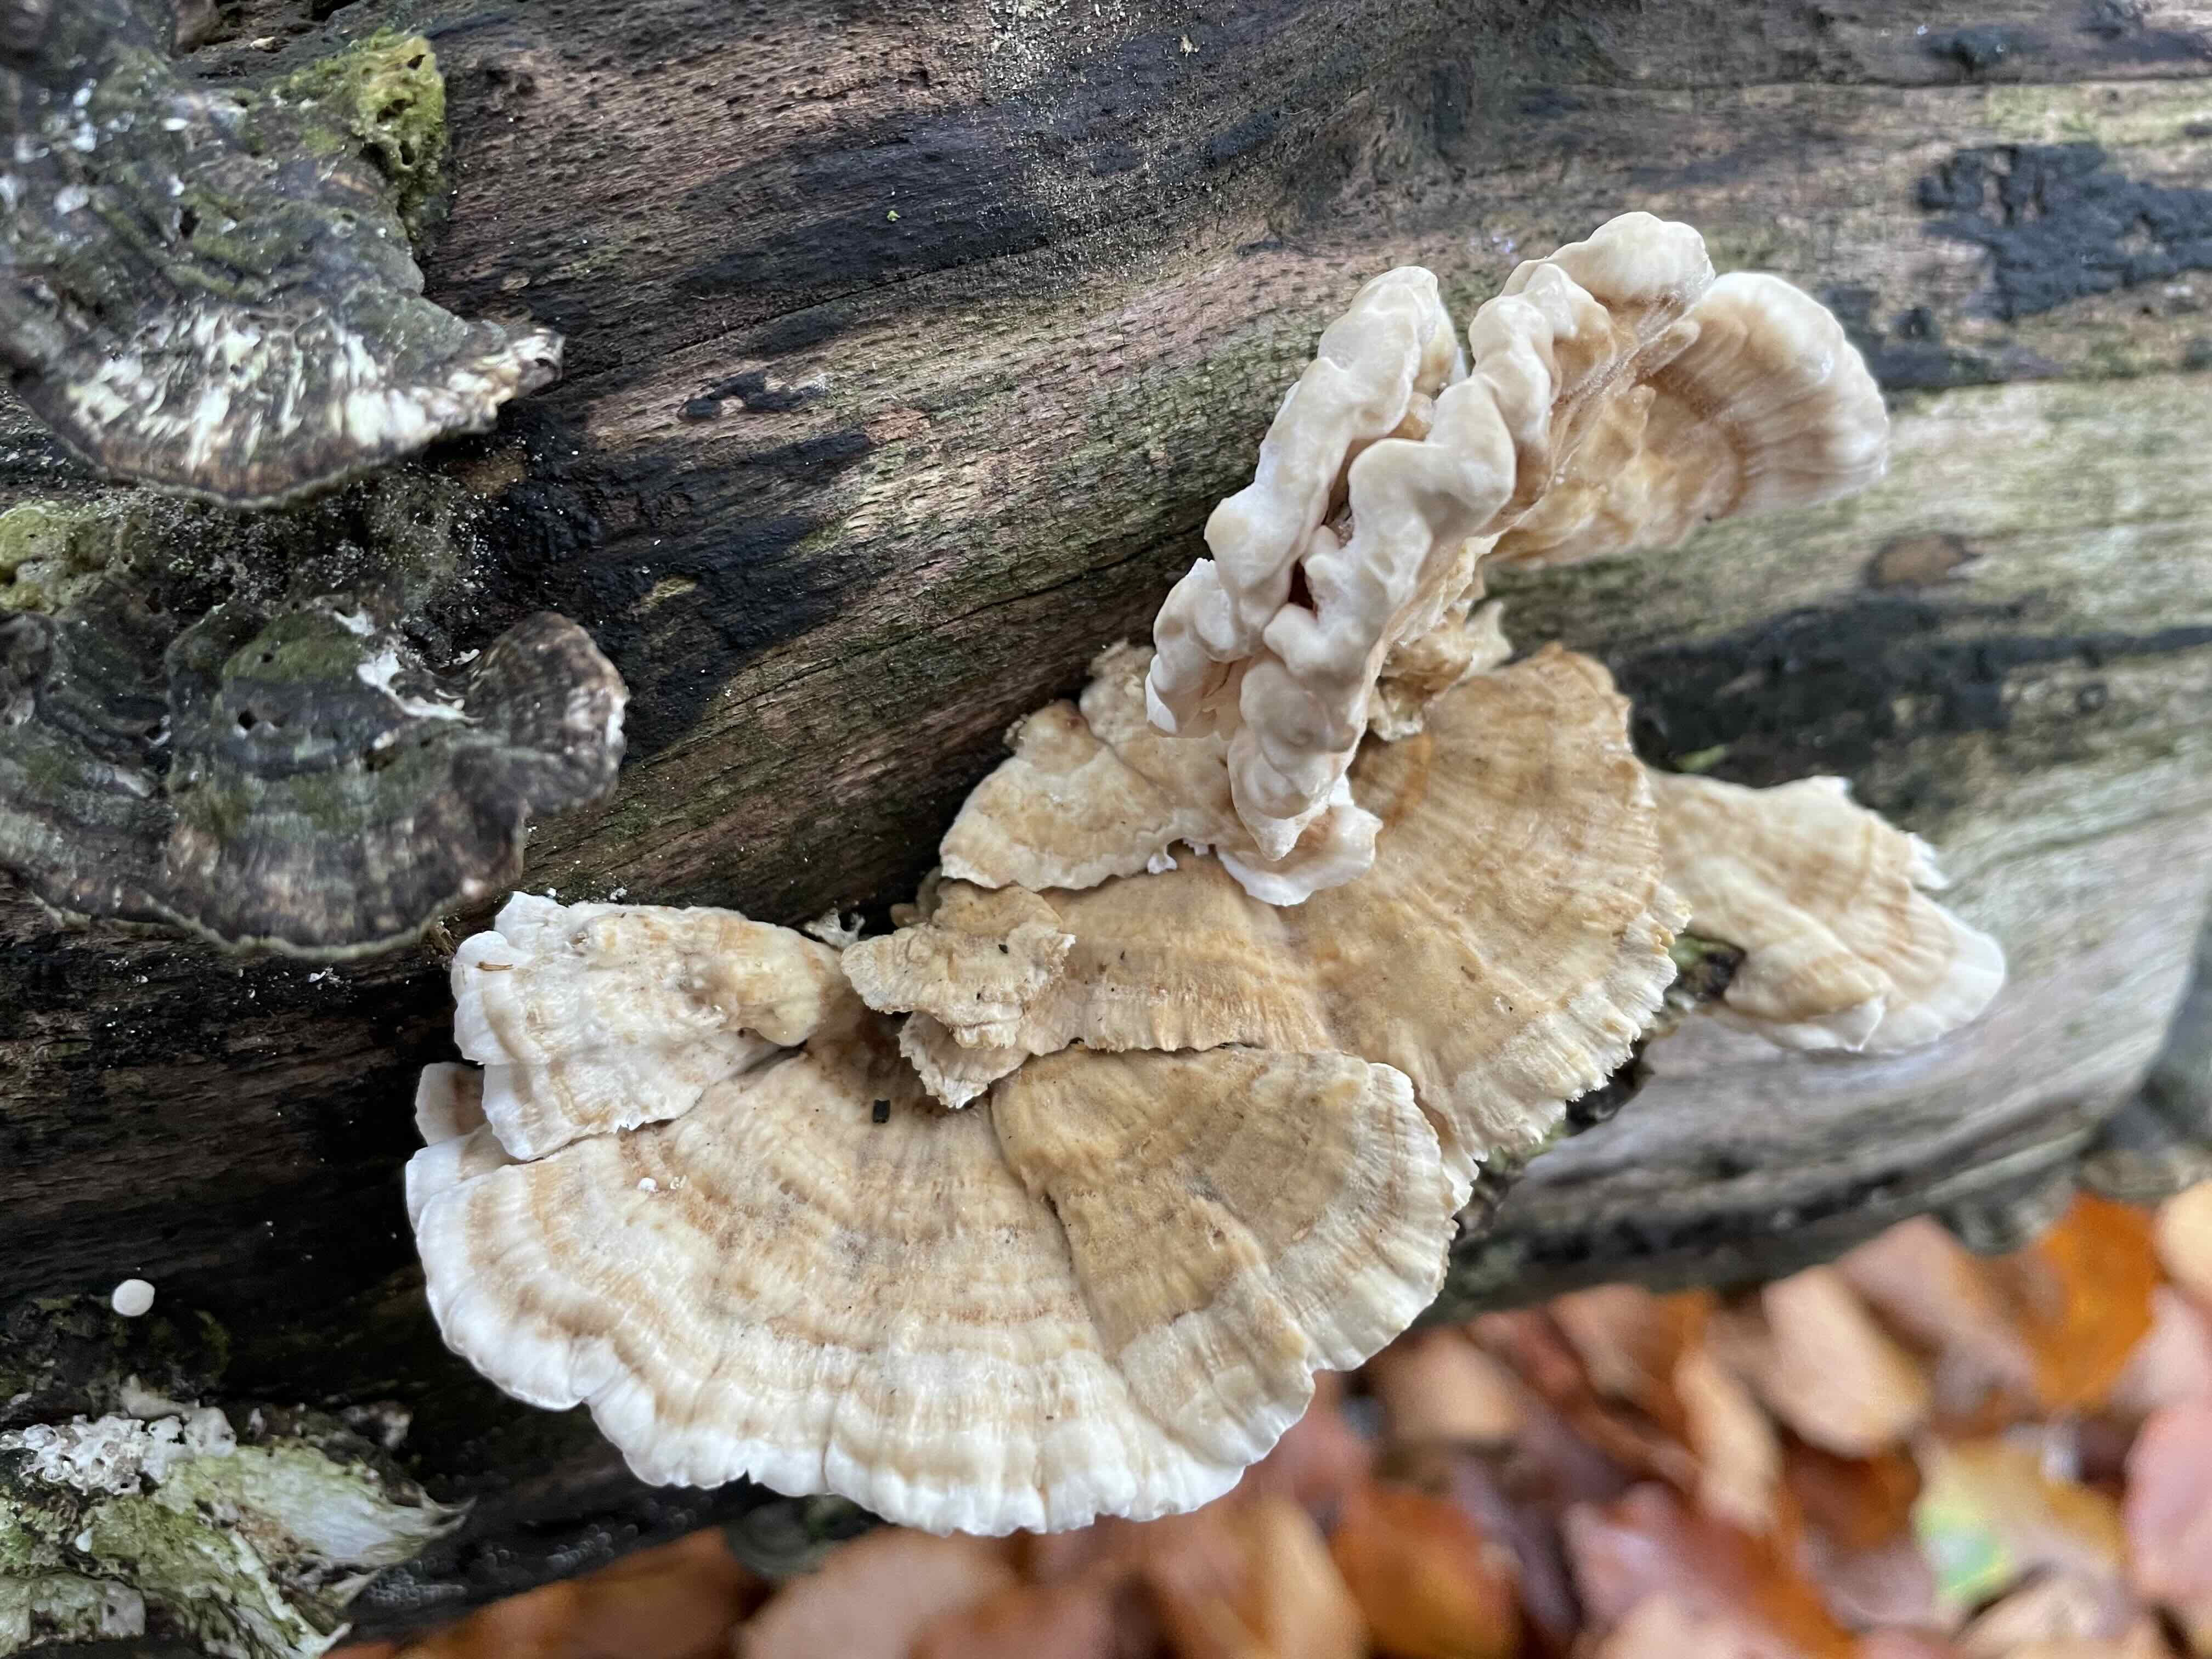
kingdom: Fungi
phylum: Basidiomycota
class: Agaricomycetes
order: Polyporales
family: Polyporaceae
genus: Trametes
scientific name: Trametes ochracea
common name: bæltet læderporesvamp
